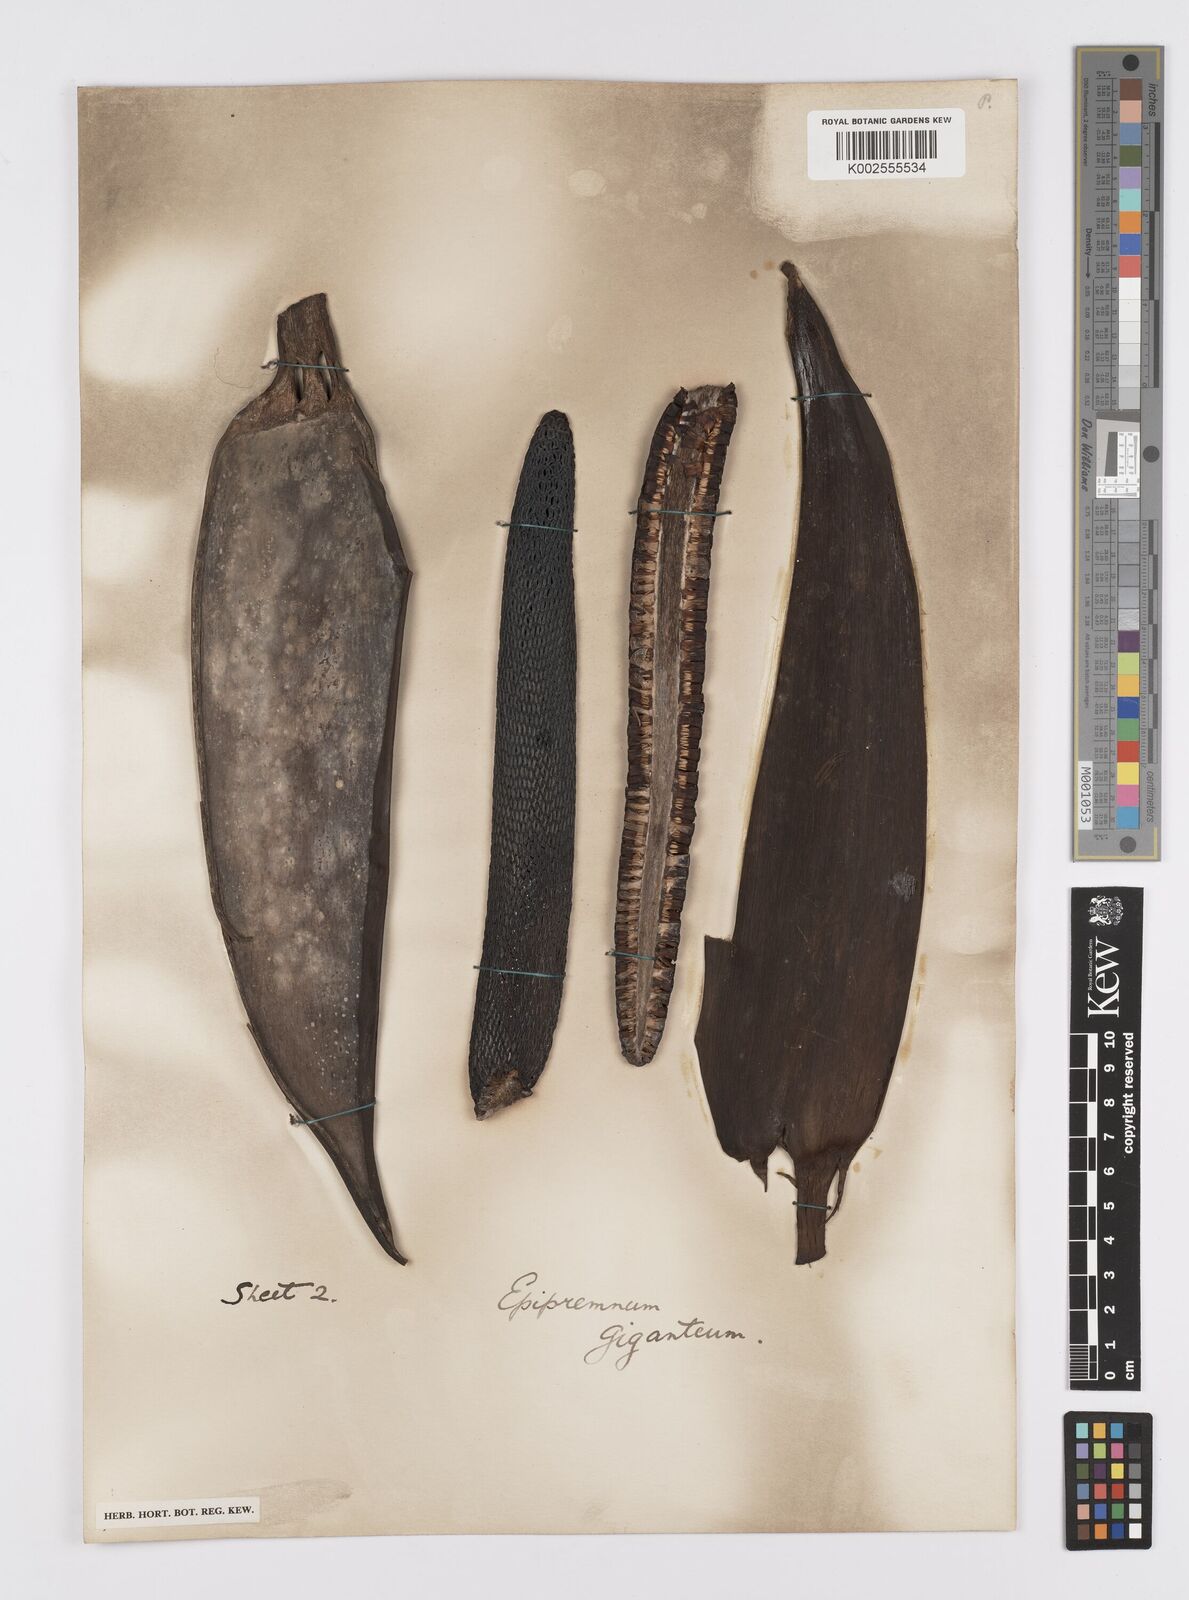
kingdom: Plantae
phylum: Tracheophyta
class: Liliopsida
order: Alismatales
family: Araceae
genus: Epipremnum
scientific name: Epipremnum giganteum
